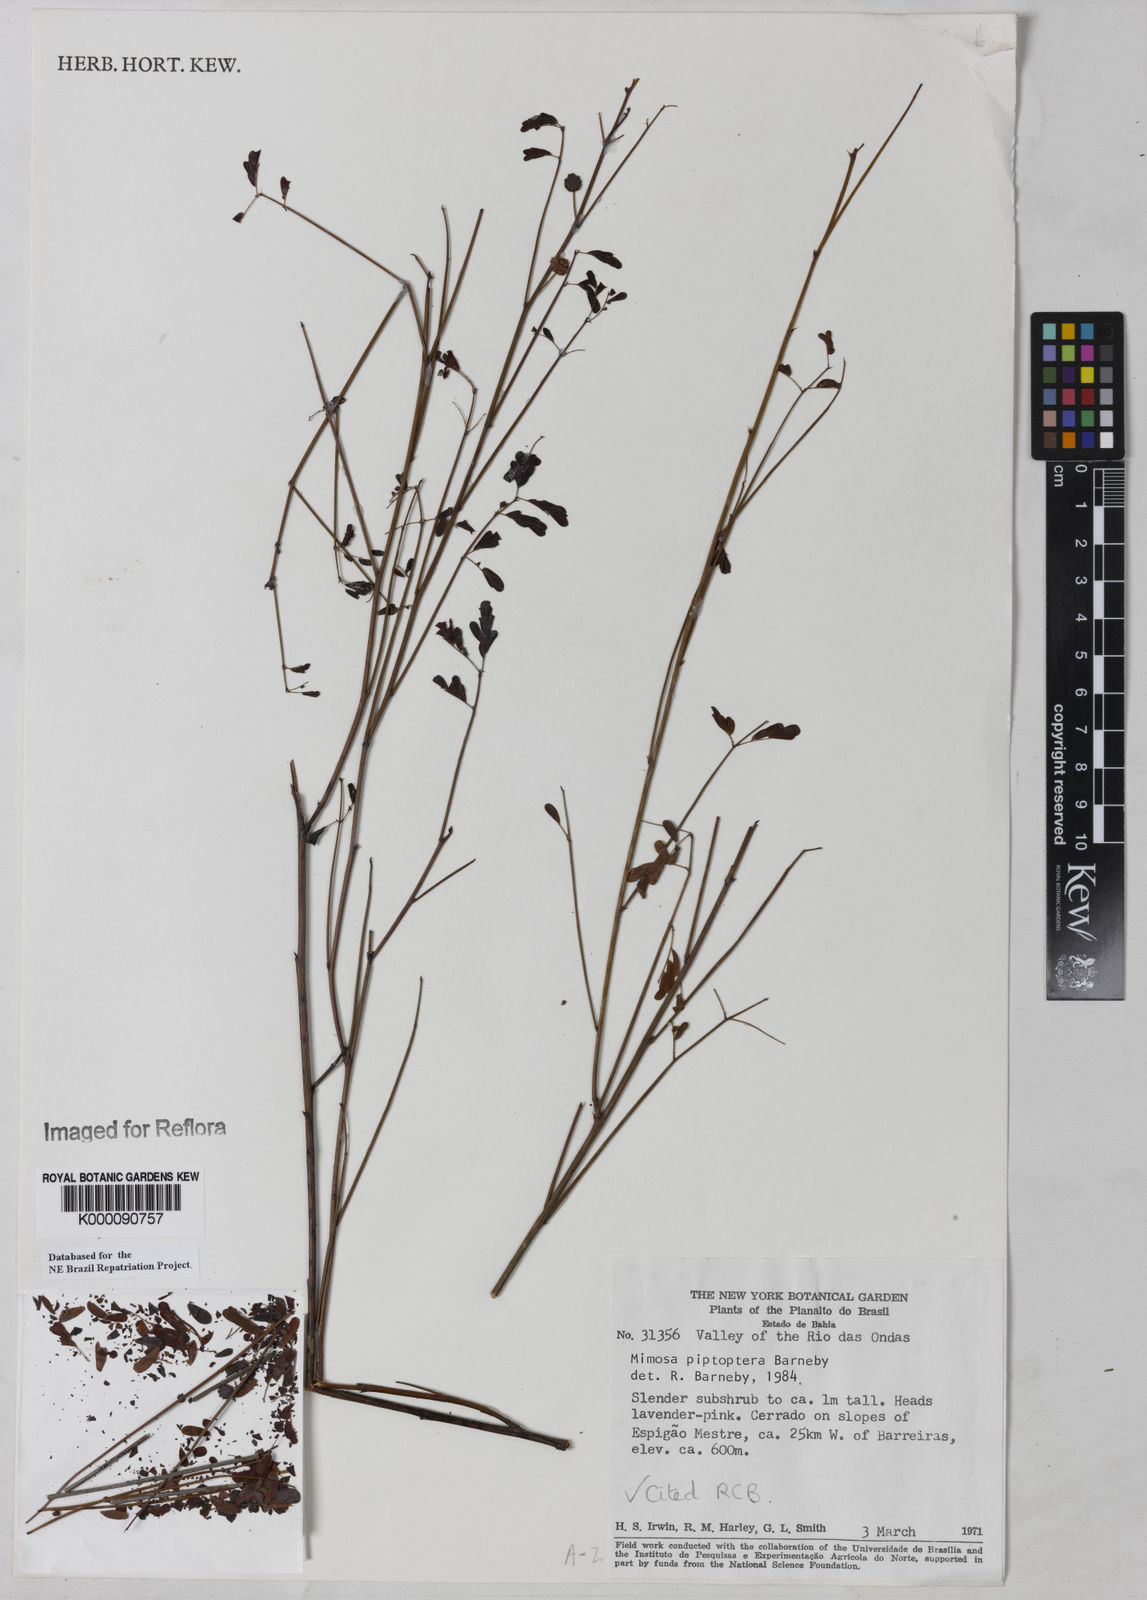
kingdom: Plantae
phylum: Tracheophyta
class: Magnoliopsida
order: Fabales
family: Fabaceae
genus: Mimosa
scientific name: Mimosa piptoptera
